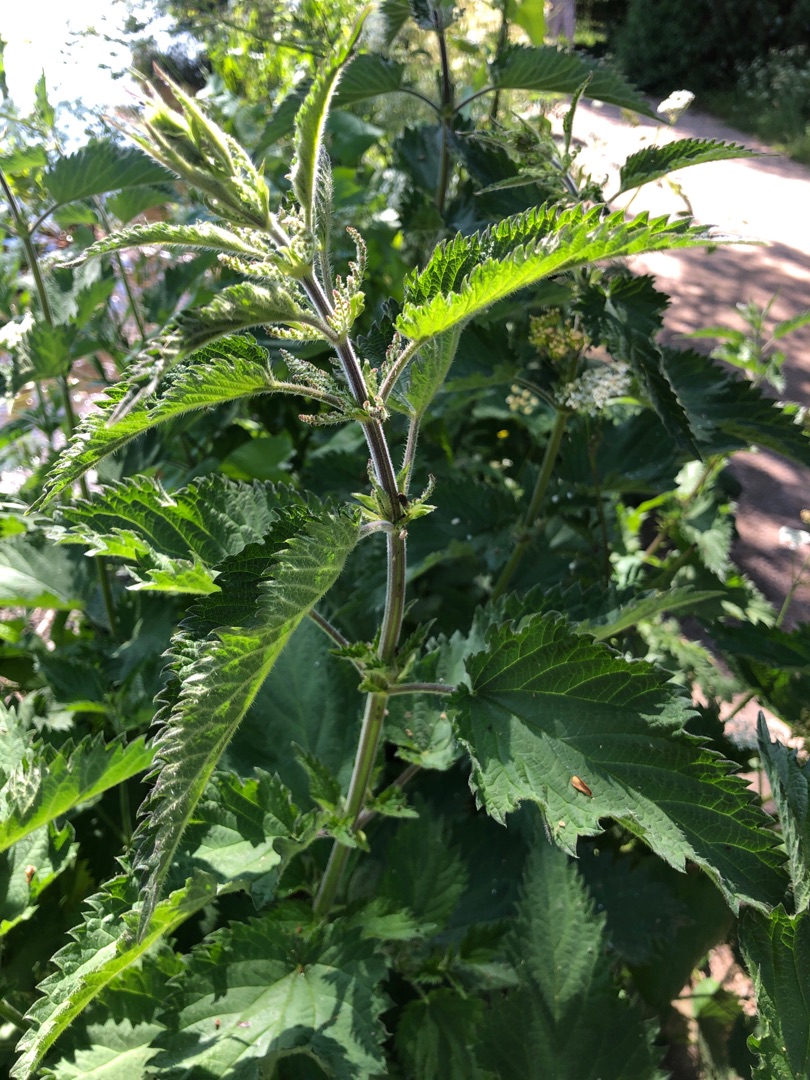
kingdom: Plantae
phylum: Tracheophyta
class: Magnoliopsida
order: Rosales
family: Urticaceae
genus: Urtica
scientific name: Urtica dioica
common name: Stor nælde
